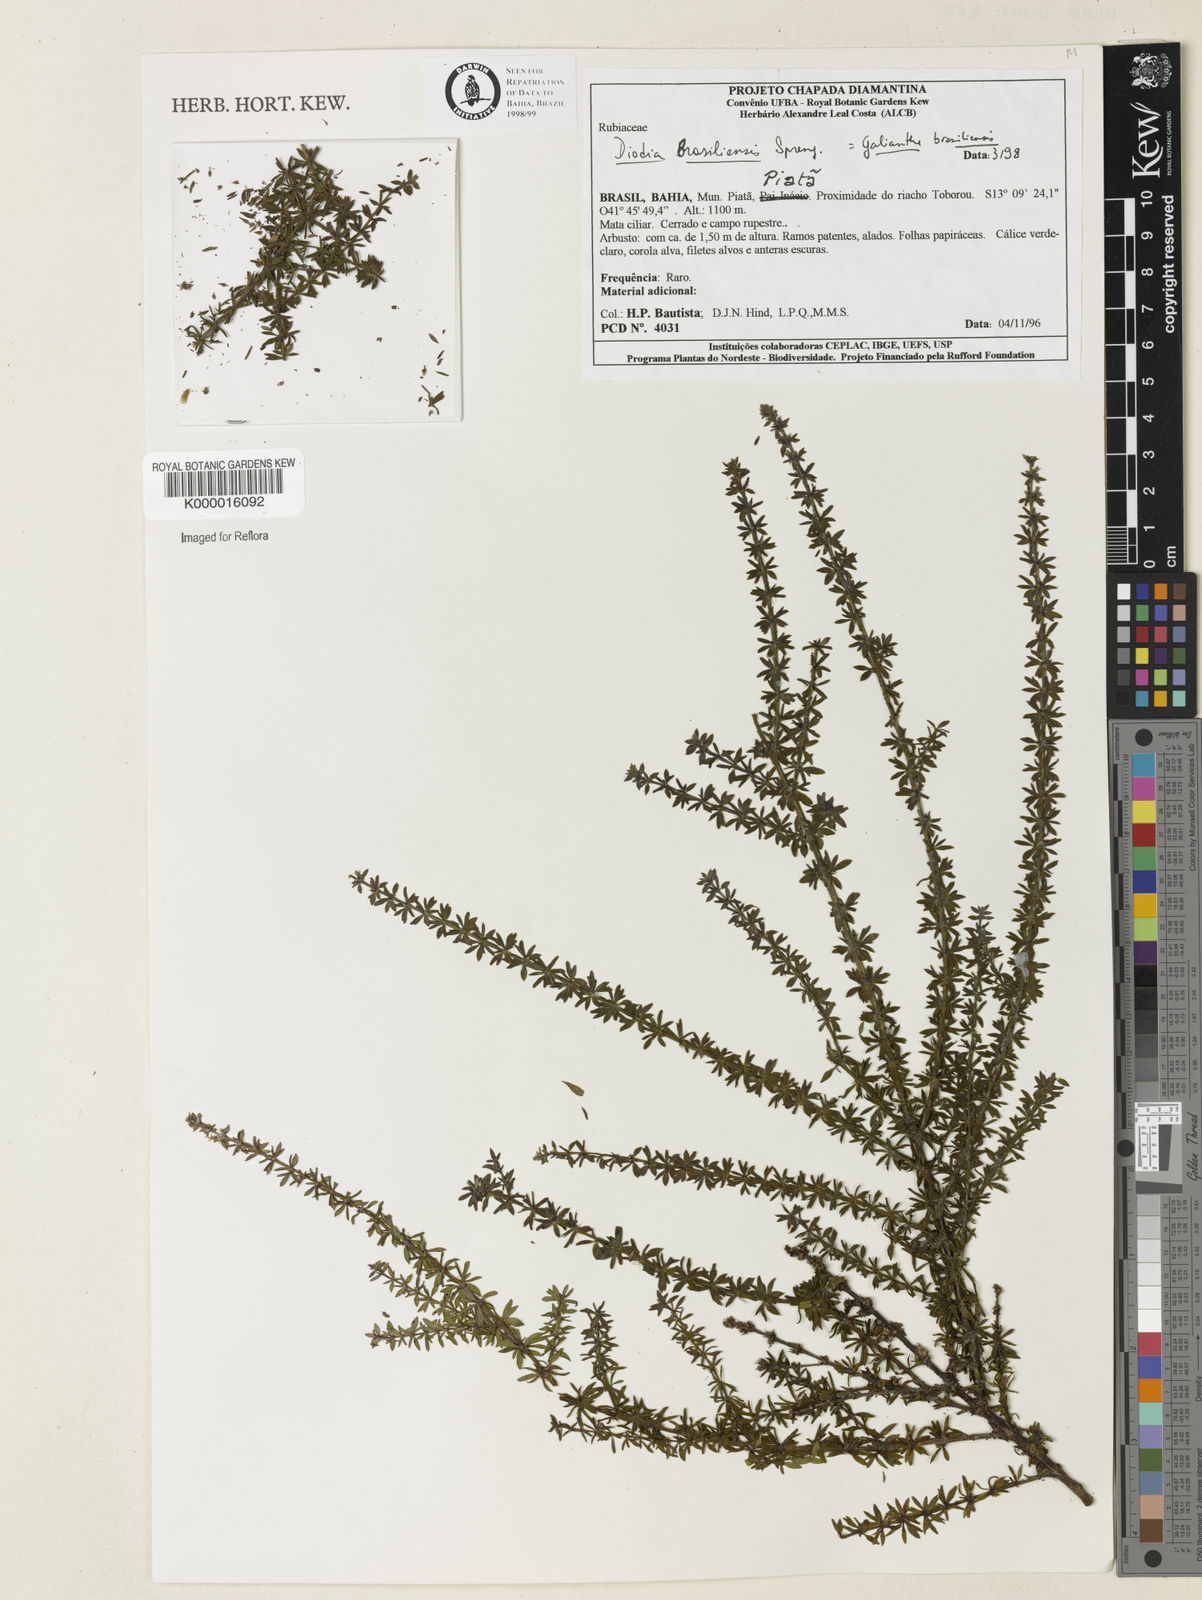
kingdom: Plantae
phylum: Tracheophyta
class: Magnoliopsida
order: Gentianales
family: Rubiaceae
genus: Galianthe
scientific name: Galianthe brasiliensis
